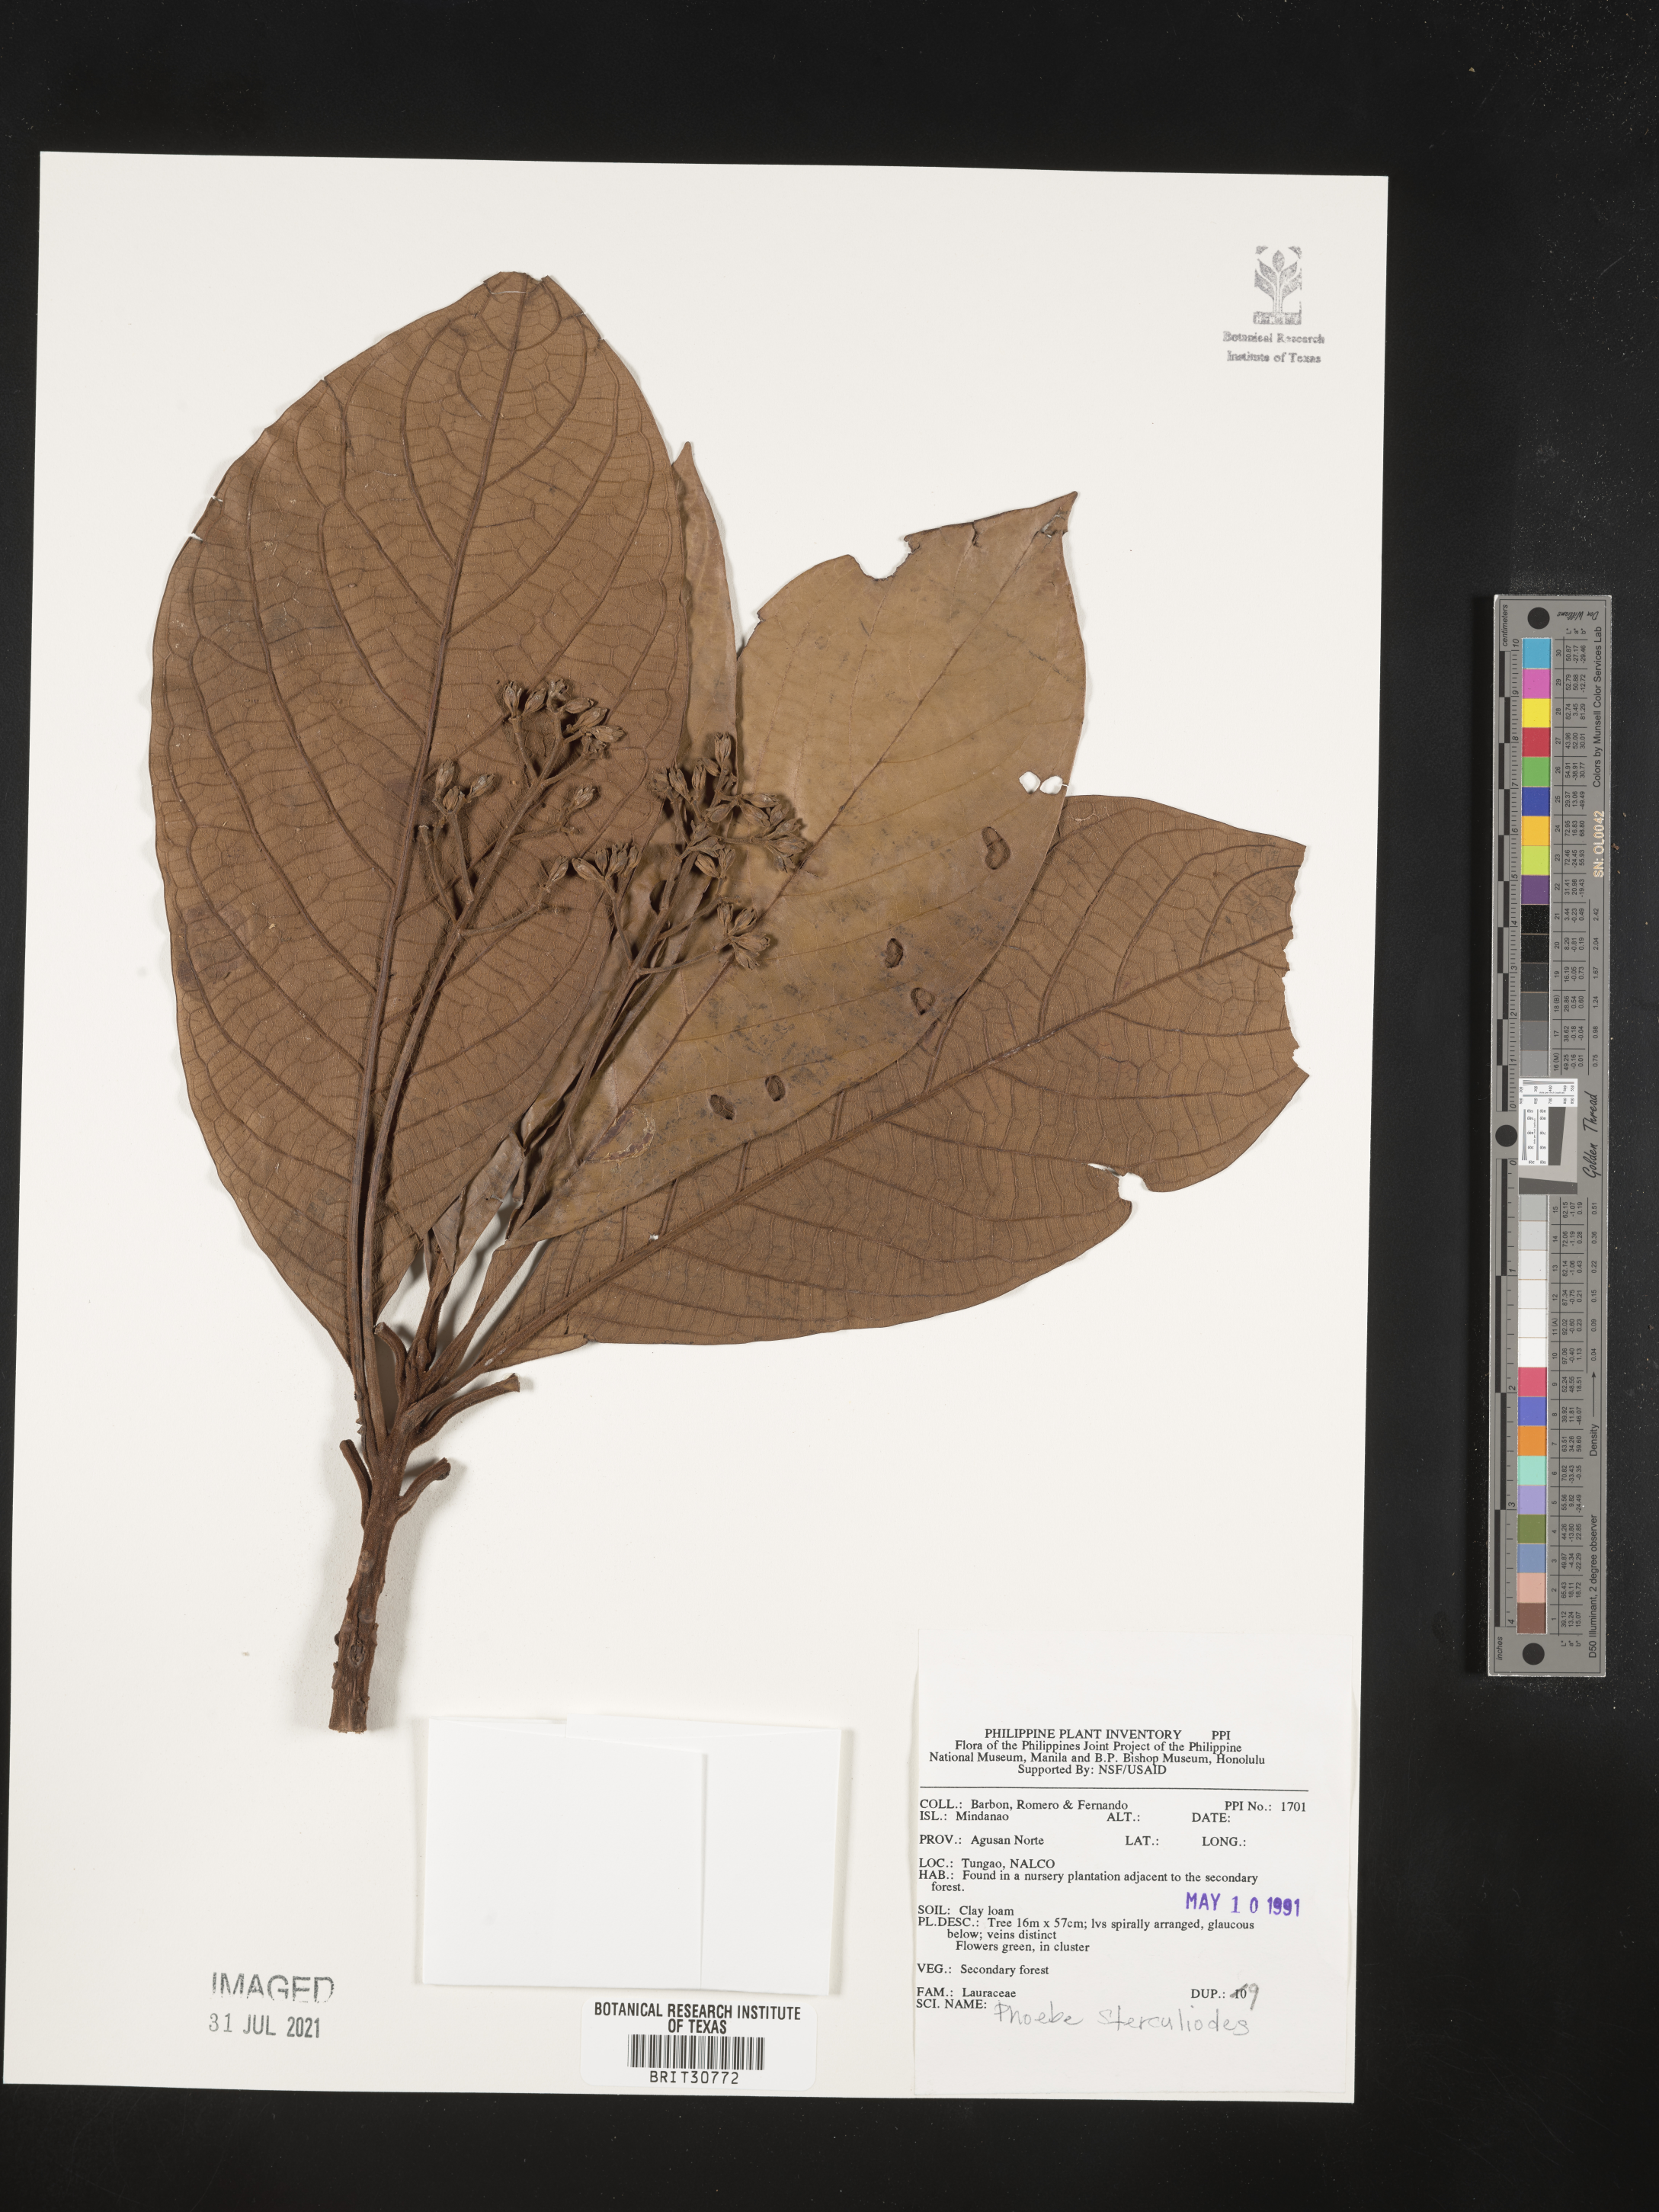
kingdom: Plantae
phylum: Tracheophyta
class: Magnoliopsida
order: Laurales
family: Lauraceae
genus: Phoebe
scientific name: Phoebe sterculioides
